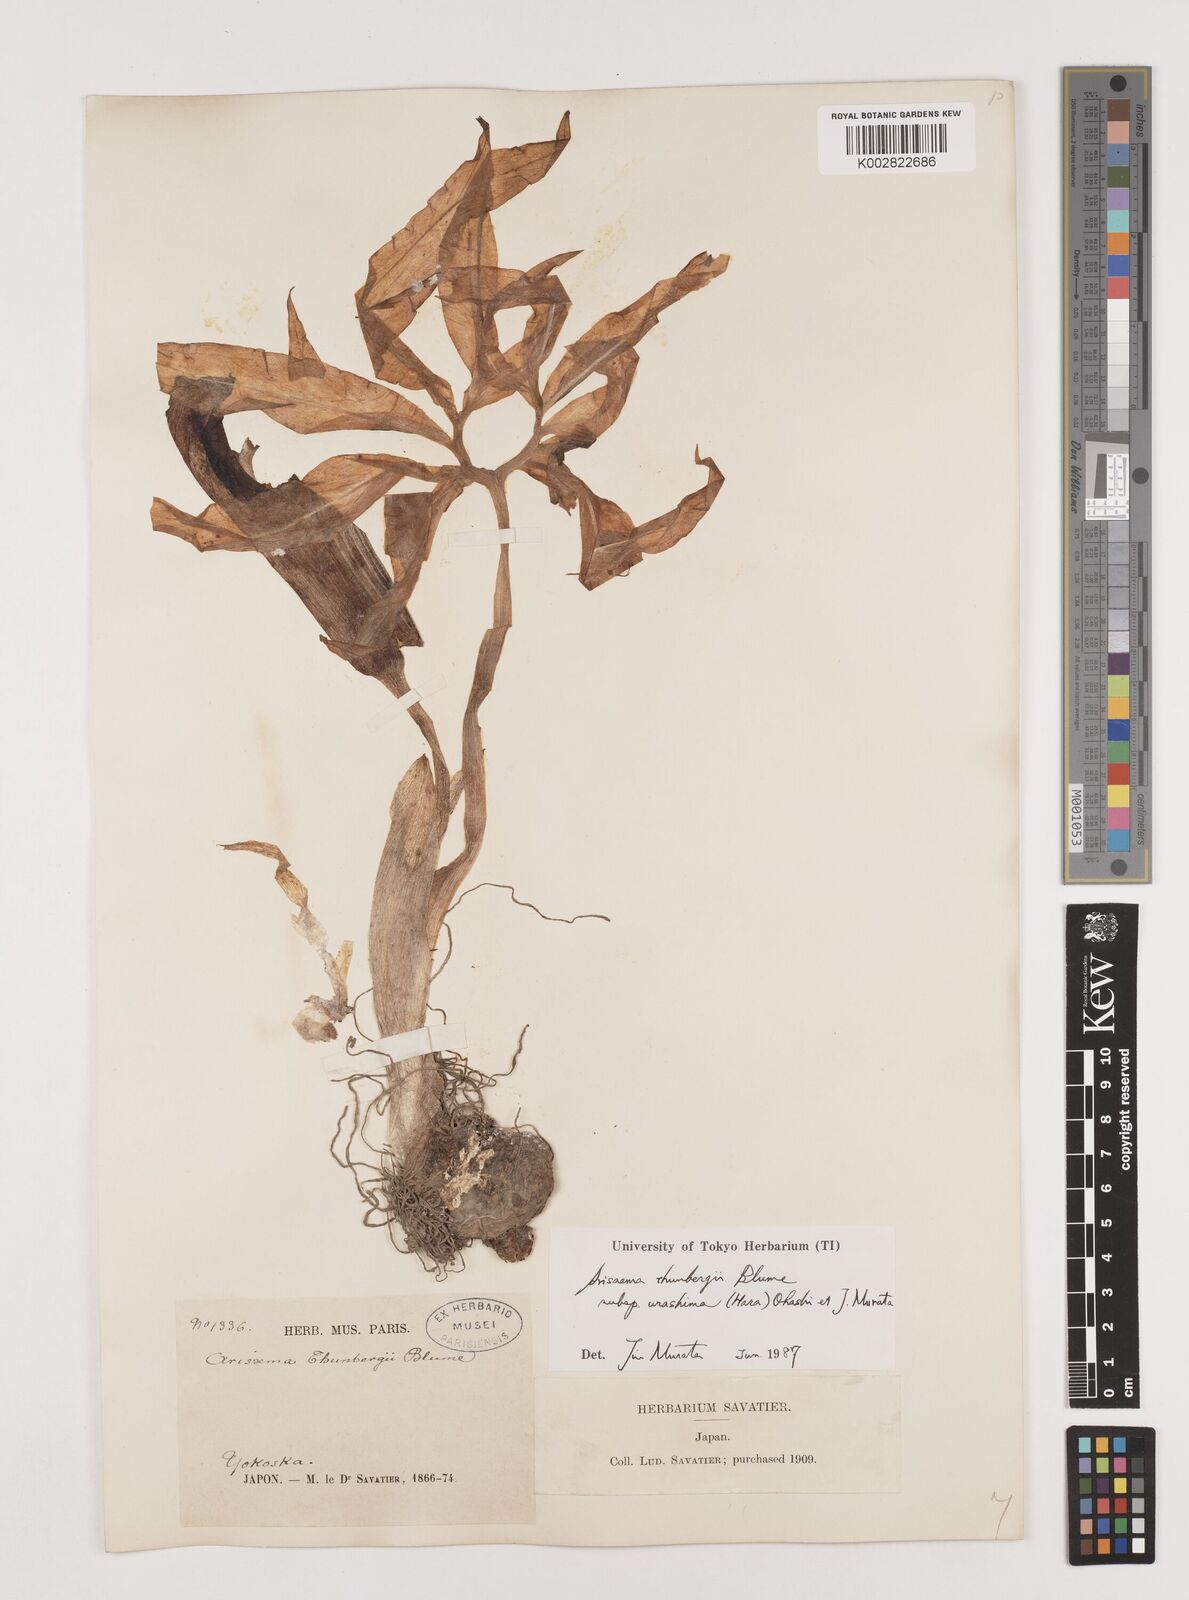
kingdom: Plantae
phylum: Tracheophyta
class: Liliopsida
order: Alismatales
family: Araceae
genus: Arisaema
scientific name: Arisaema thunbergii
